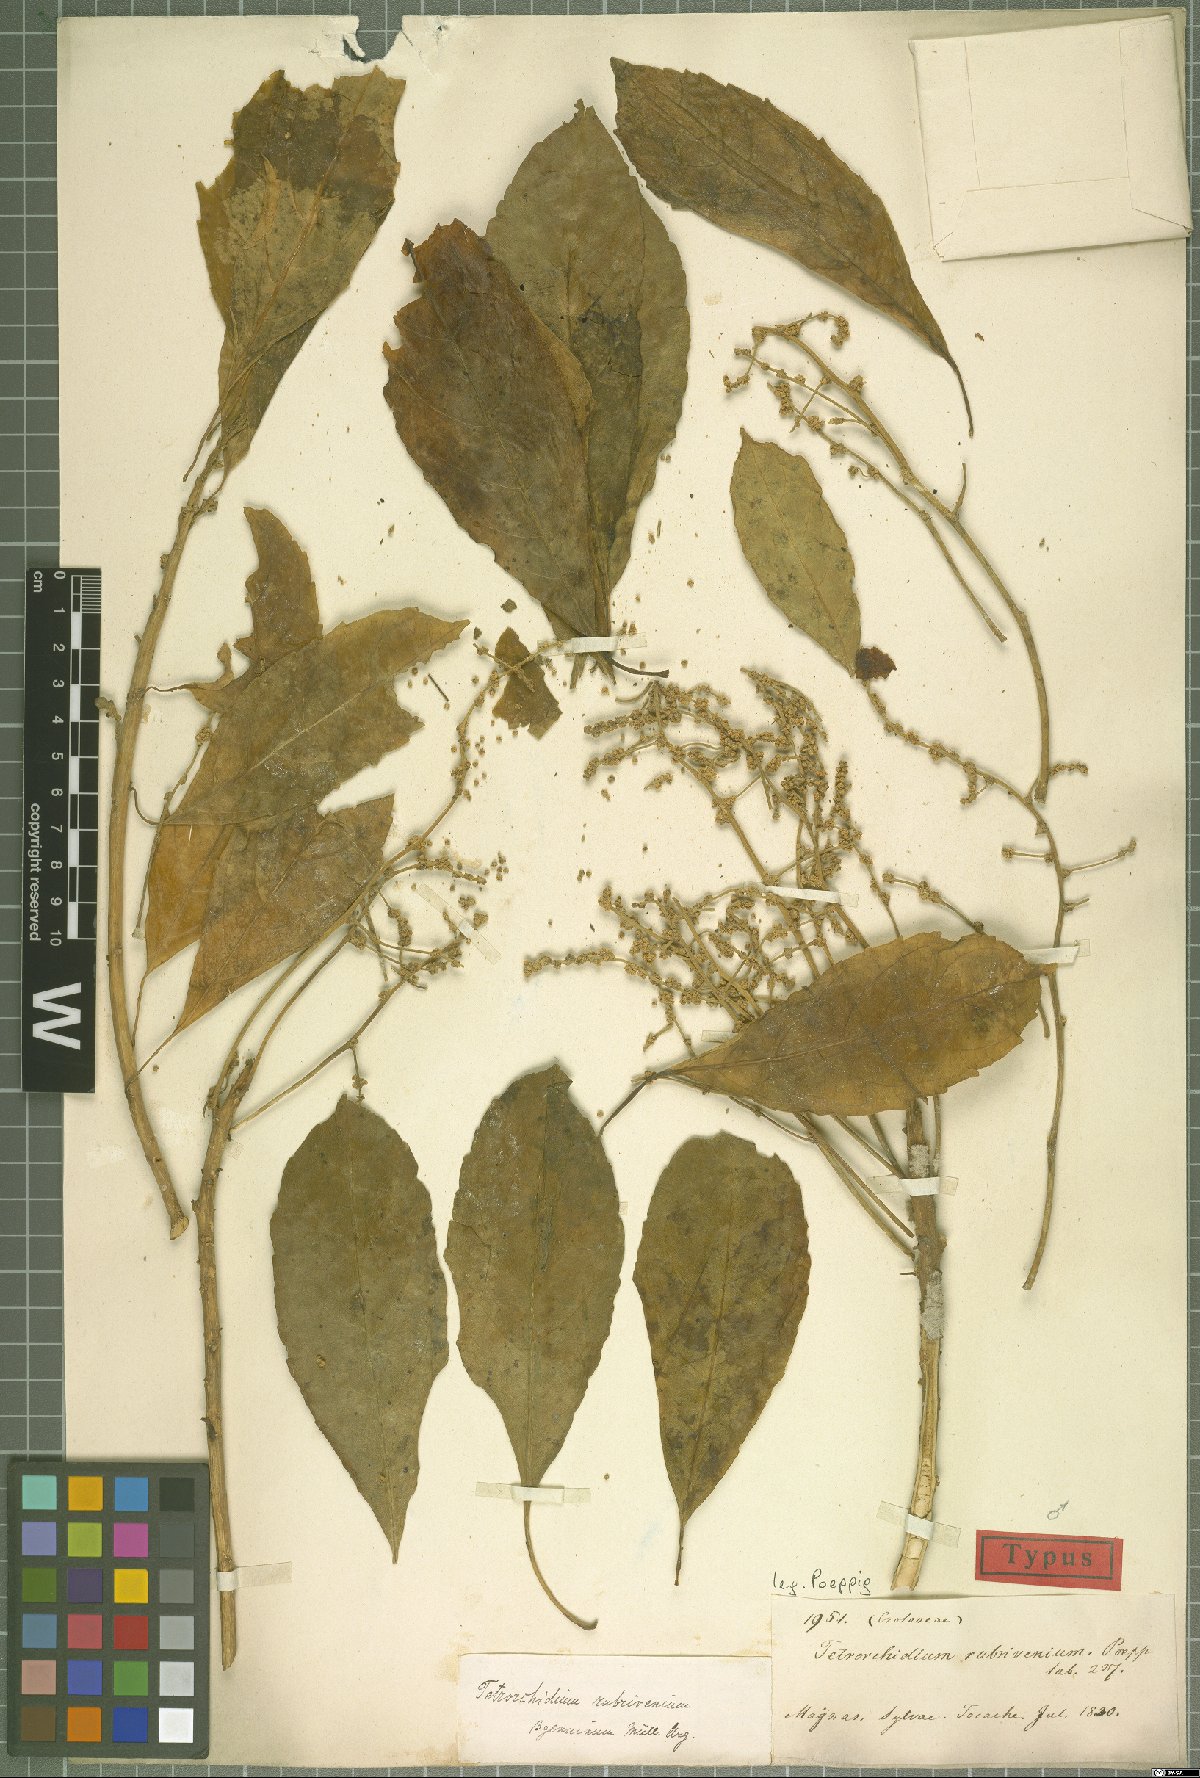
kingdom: Plantae
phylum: Tracheophyta
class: Magnoliopsida
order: Malpighiales
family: Euphorbiaceae
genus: Tetrorchidium
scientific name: Tetrorchidium rubrivenium
